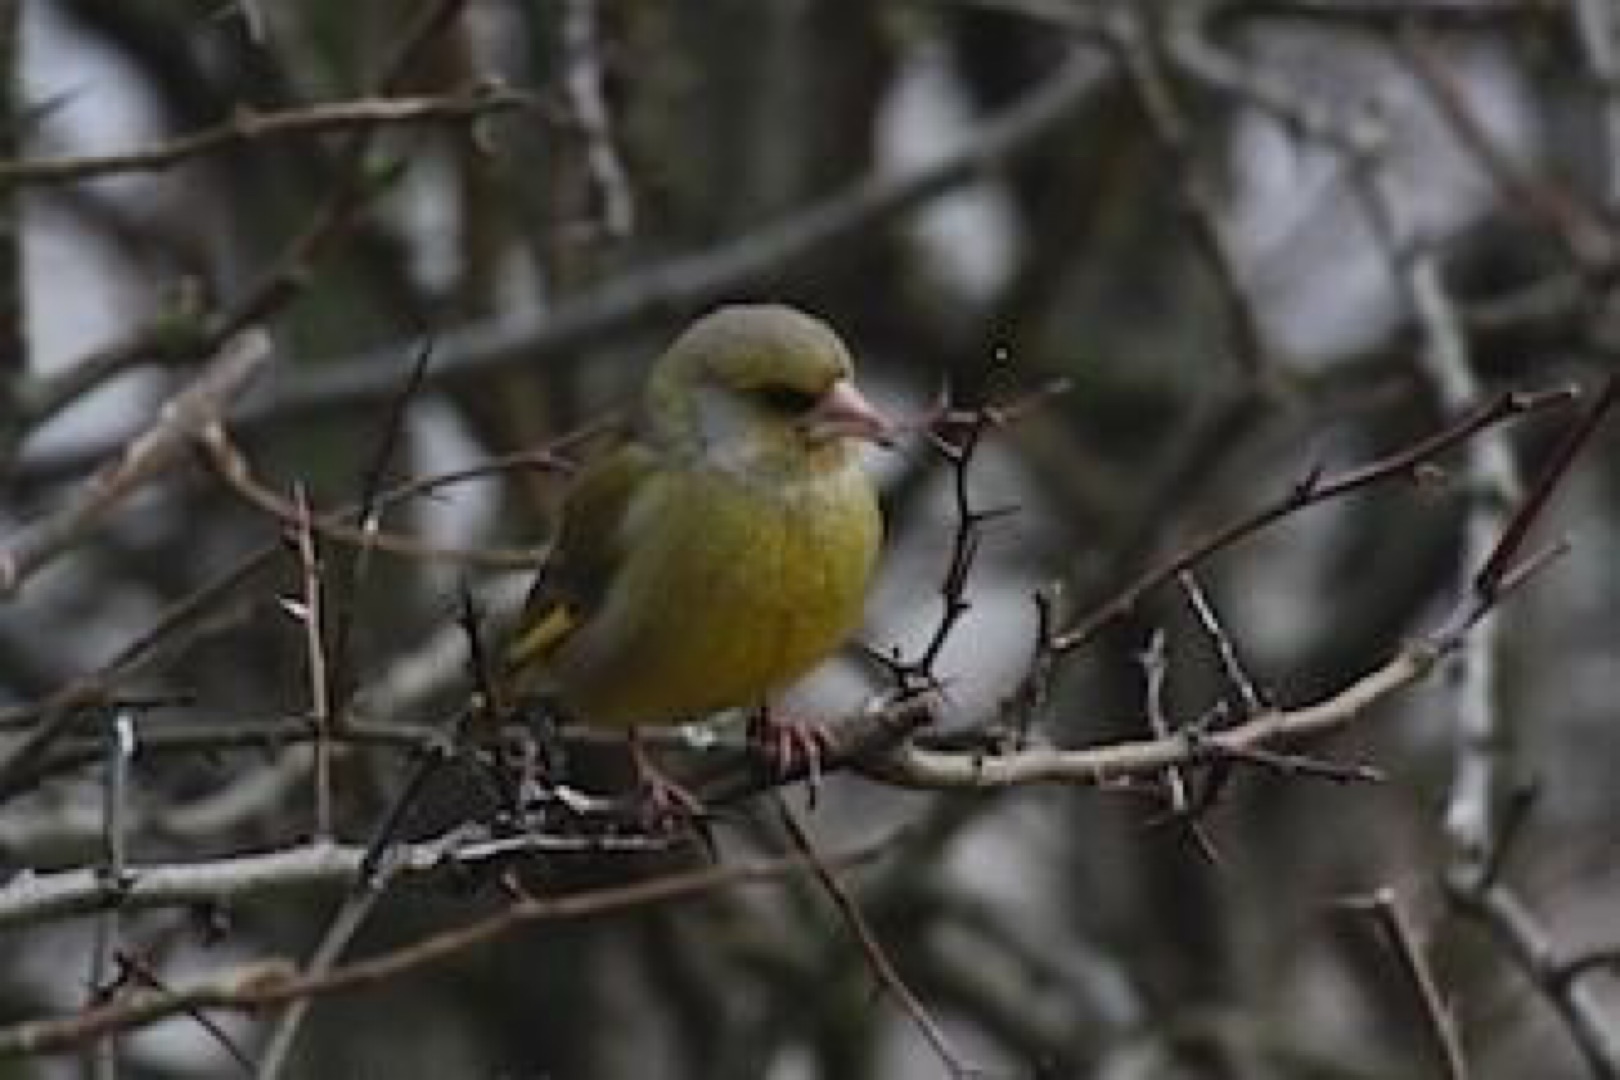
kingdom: Plantae
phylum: Tracheophyta
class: Liliopsida
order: Poales
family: Poaceae
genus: Chloris
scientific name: Chloris chloris
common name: Grønirisk
